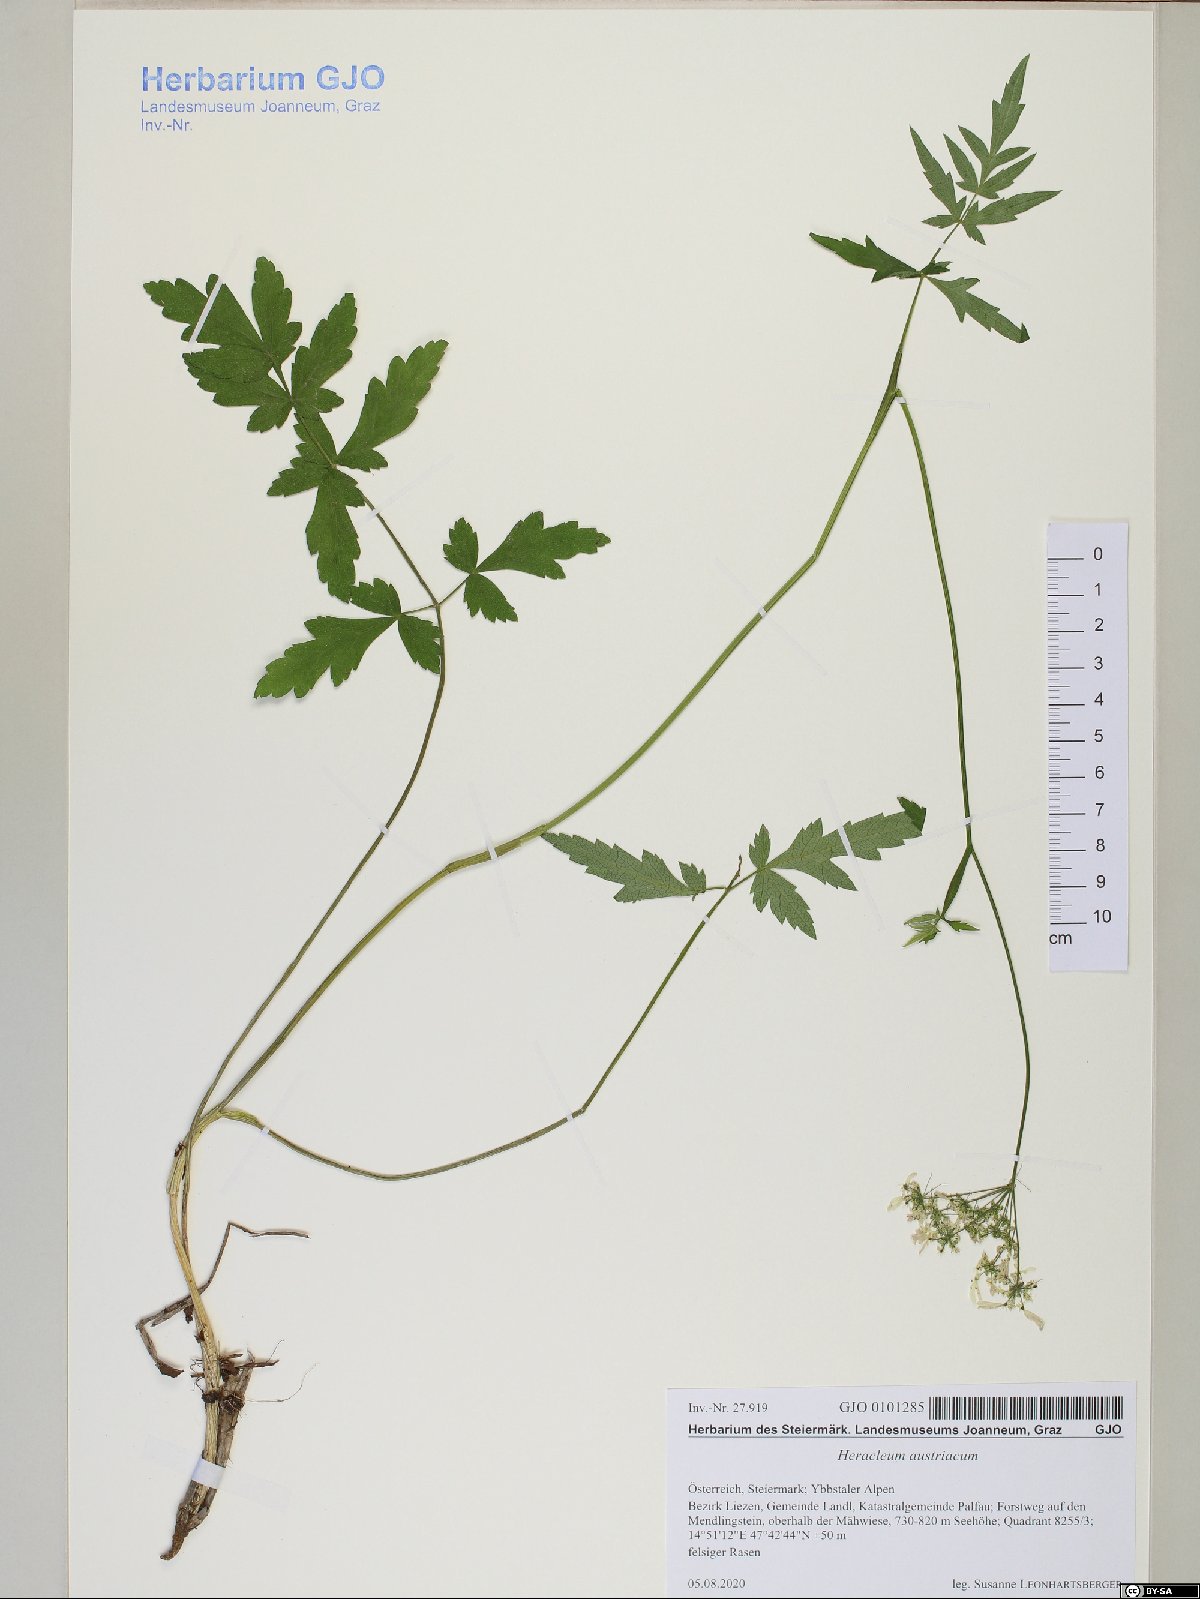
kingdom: Plantae
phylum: Tracheophyta
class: Magnoliopsida
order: Apiales
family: Apiaceae
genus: Heracleum
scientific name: Heracleum austriacum
